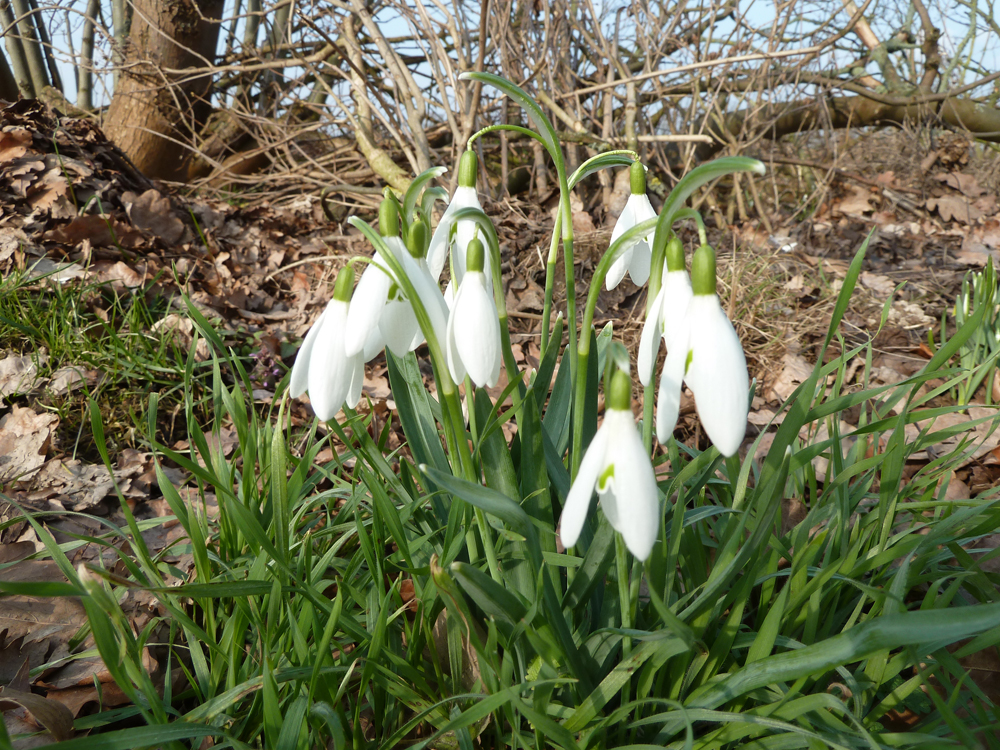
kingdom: Plantae
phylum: Tracheophyta
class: Liliopsida
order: Asparagales
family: Amaryllidaceae
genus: Galanthus
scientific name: Galanthus nivalis
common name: Snowdrop
